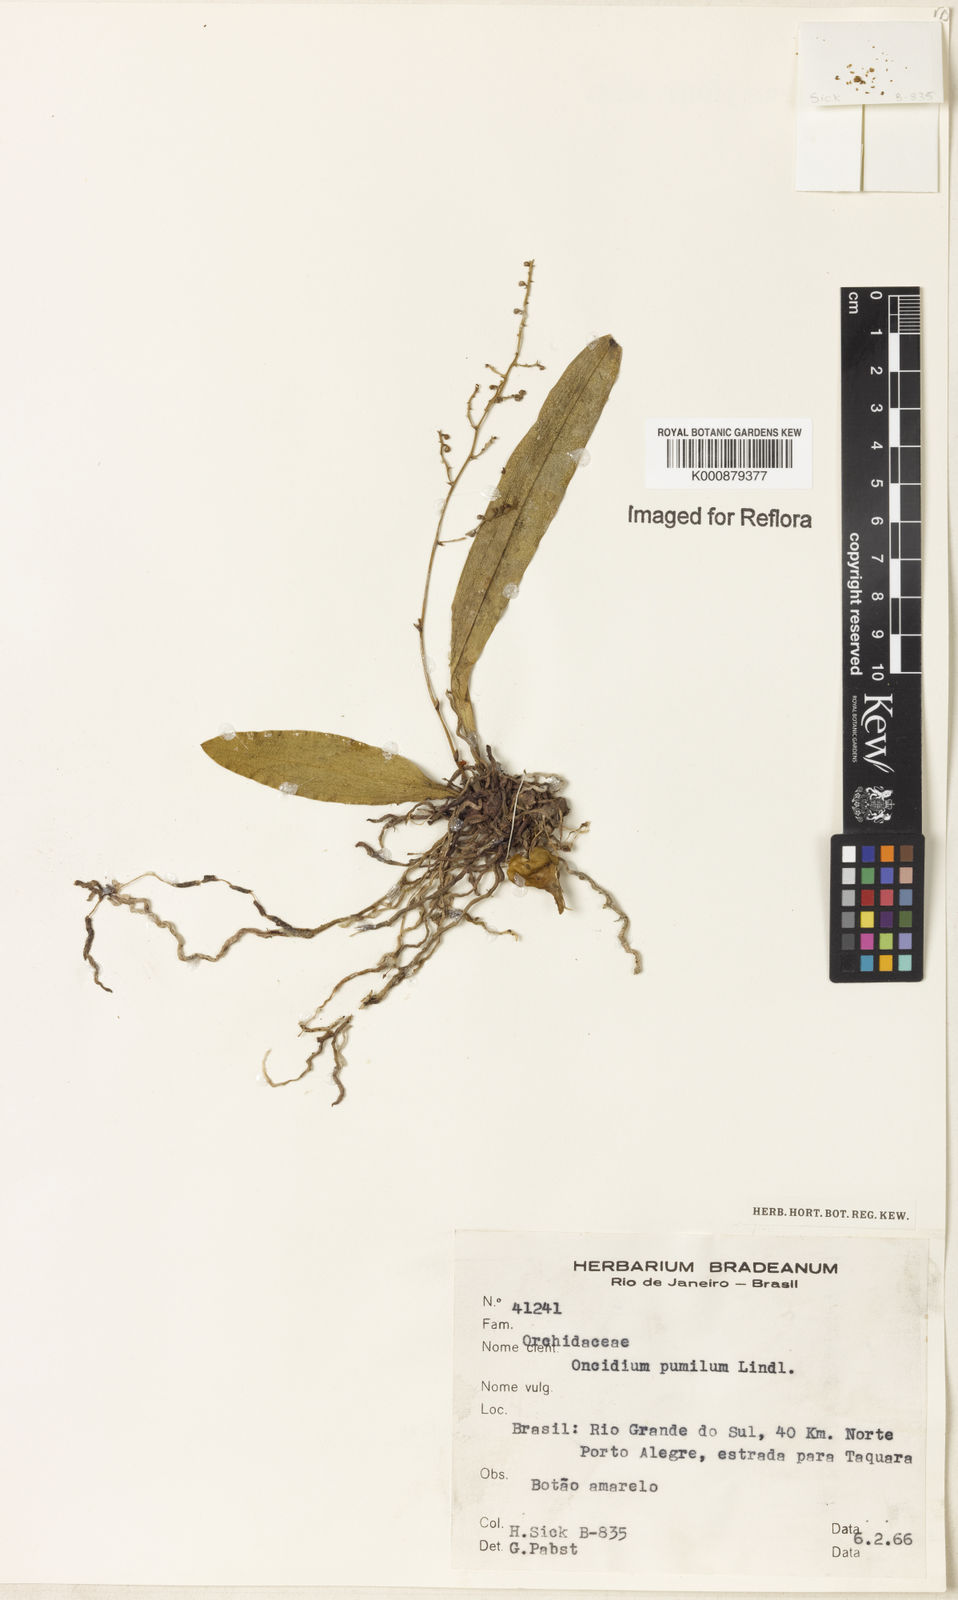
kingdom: Plantae
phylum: Tracheophyta
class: Liliopsida
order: Asparagales
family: Orchidaceae
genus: Trichocentrum
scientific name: Trichocentrum pumilum
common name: Mule-ear orchid
